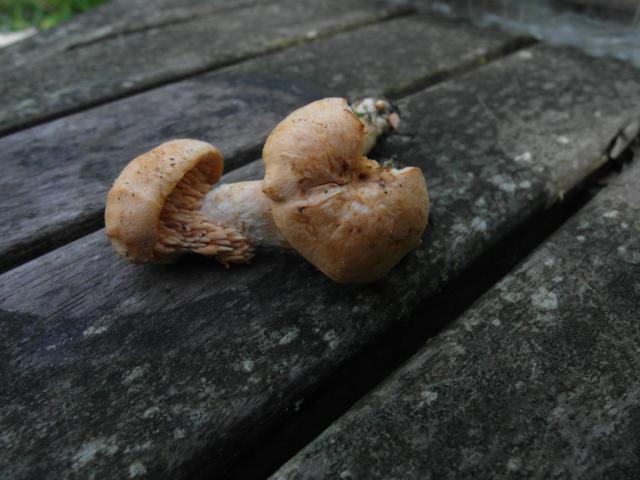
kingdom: Fungi
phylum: Basidiomycota
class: Agaricomycetes
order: Cantharellales
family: Hydnaceae
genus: Hydnum
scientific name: Hydnum umbilicatum
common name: navle-pigsvamp
